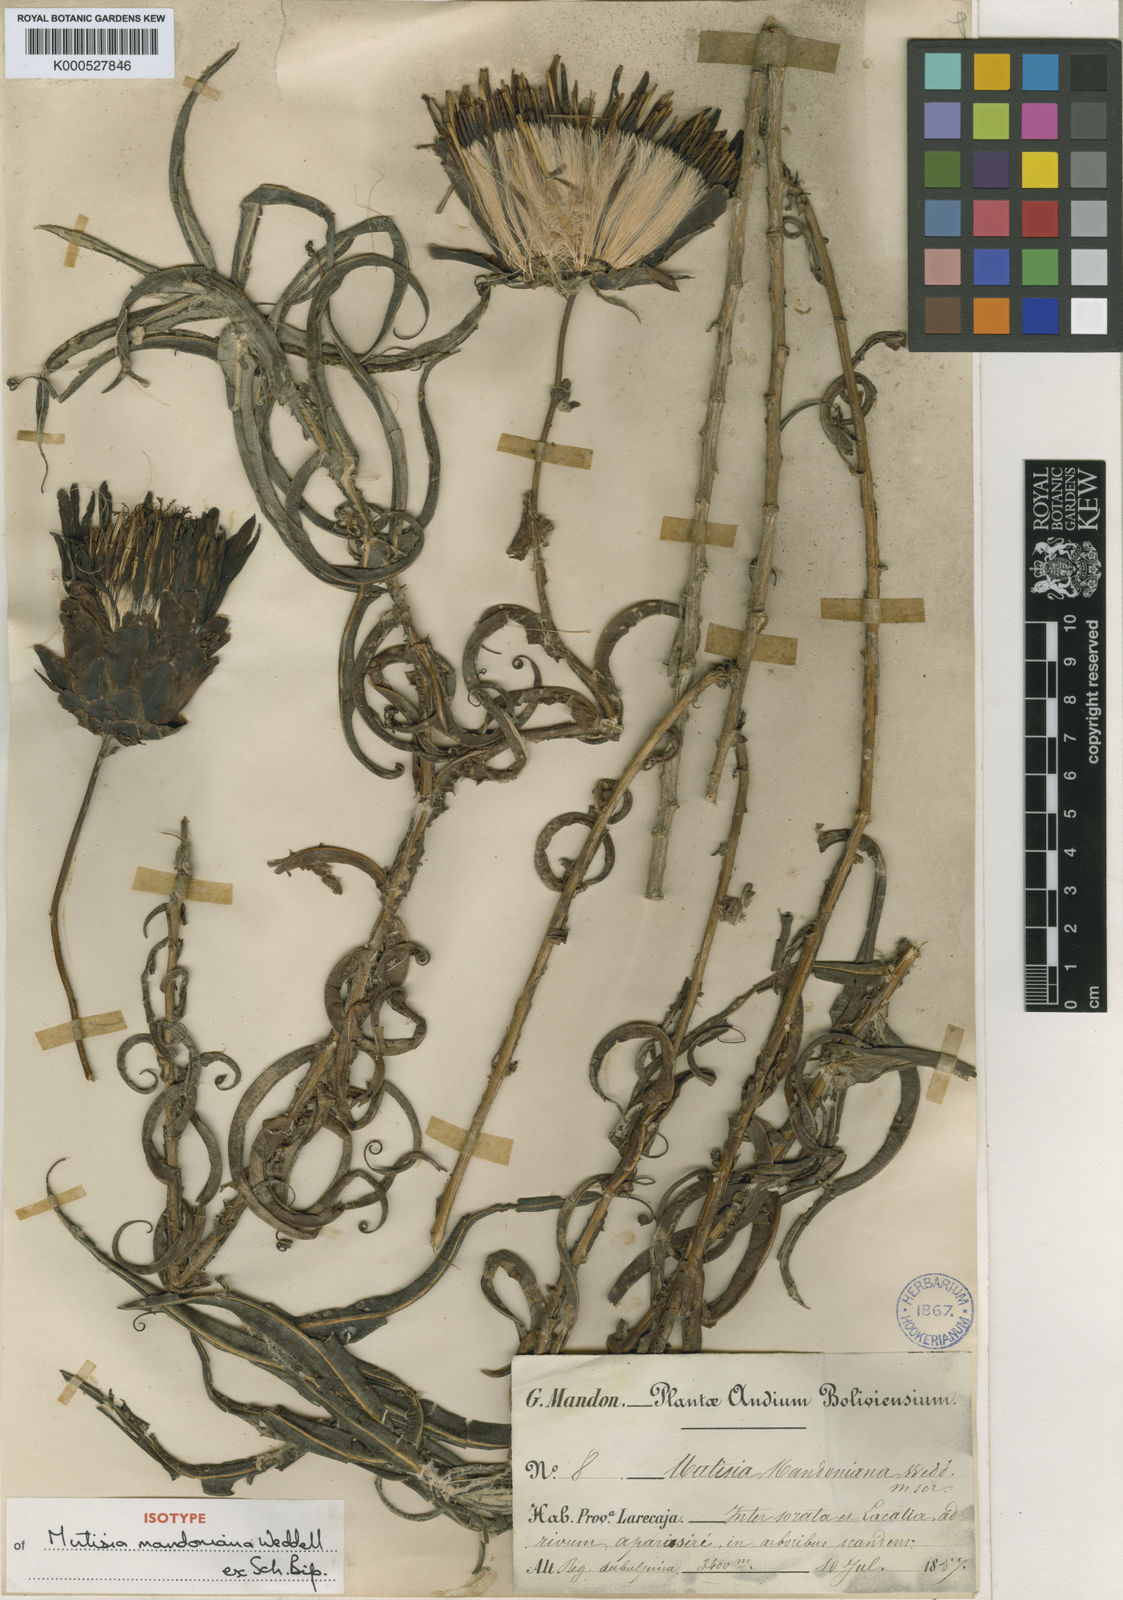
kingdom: Plantae
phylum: Tracheophyta
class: Magnoliopsida
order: Asterales
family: Asteraceae
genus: Mutisia
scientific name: Mutisia
